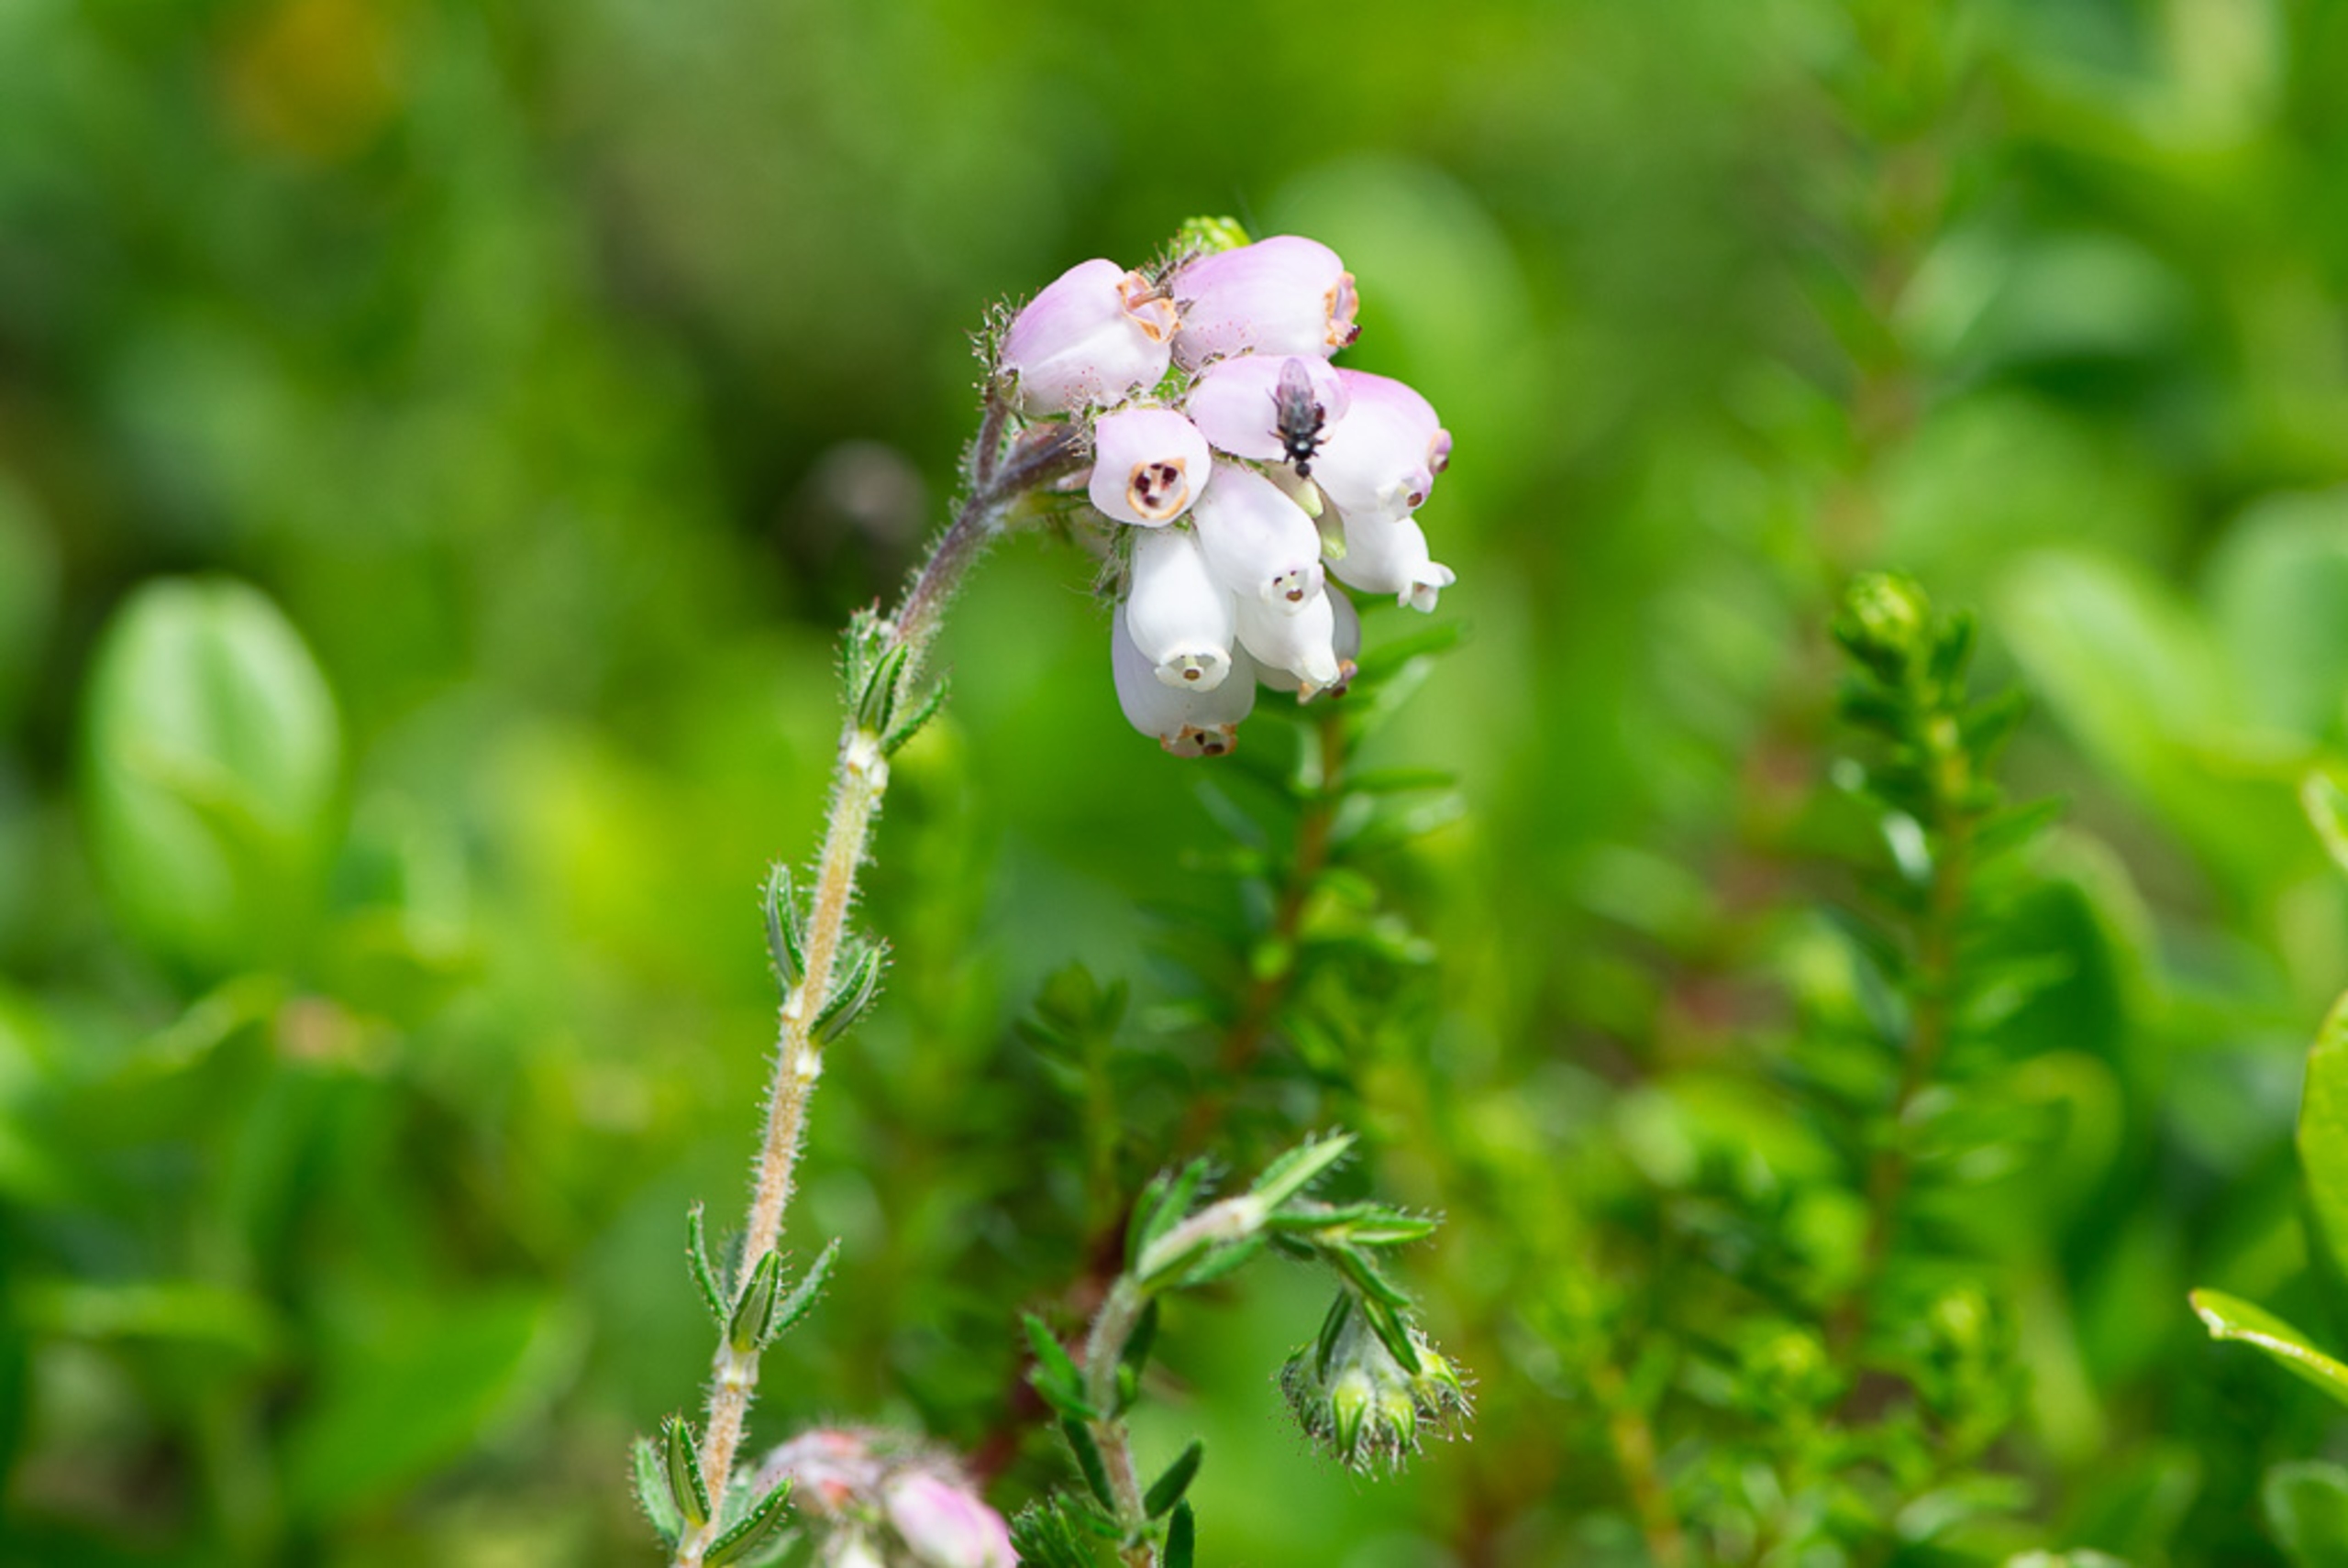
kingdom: Plantae
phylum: Tracheophyta
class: Magnoliopsida
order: Ericales
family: Ericaceae
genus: Erica
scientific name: Erica tetralix
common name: Klokkelyng
